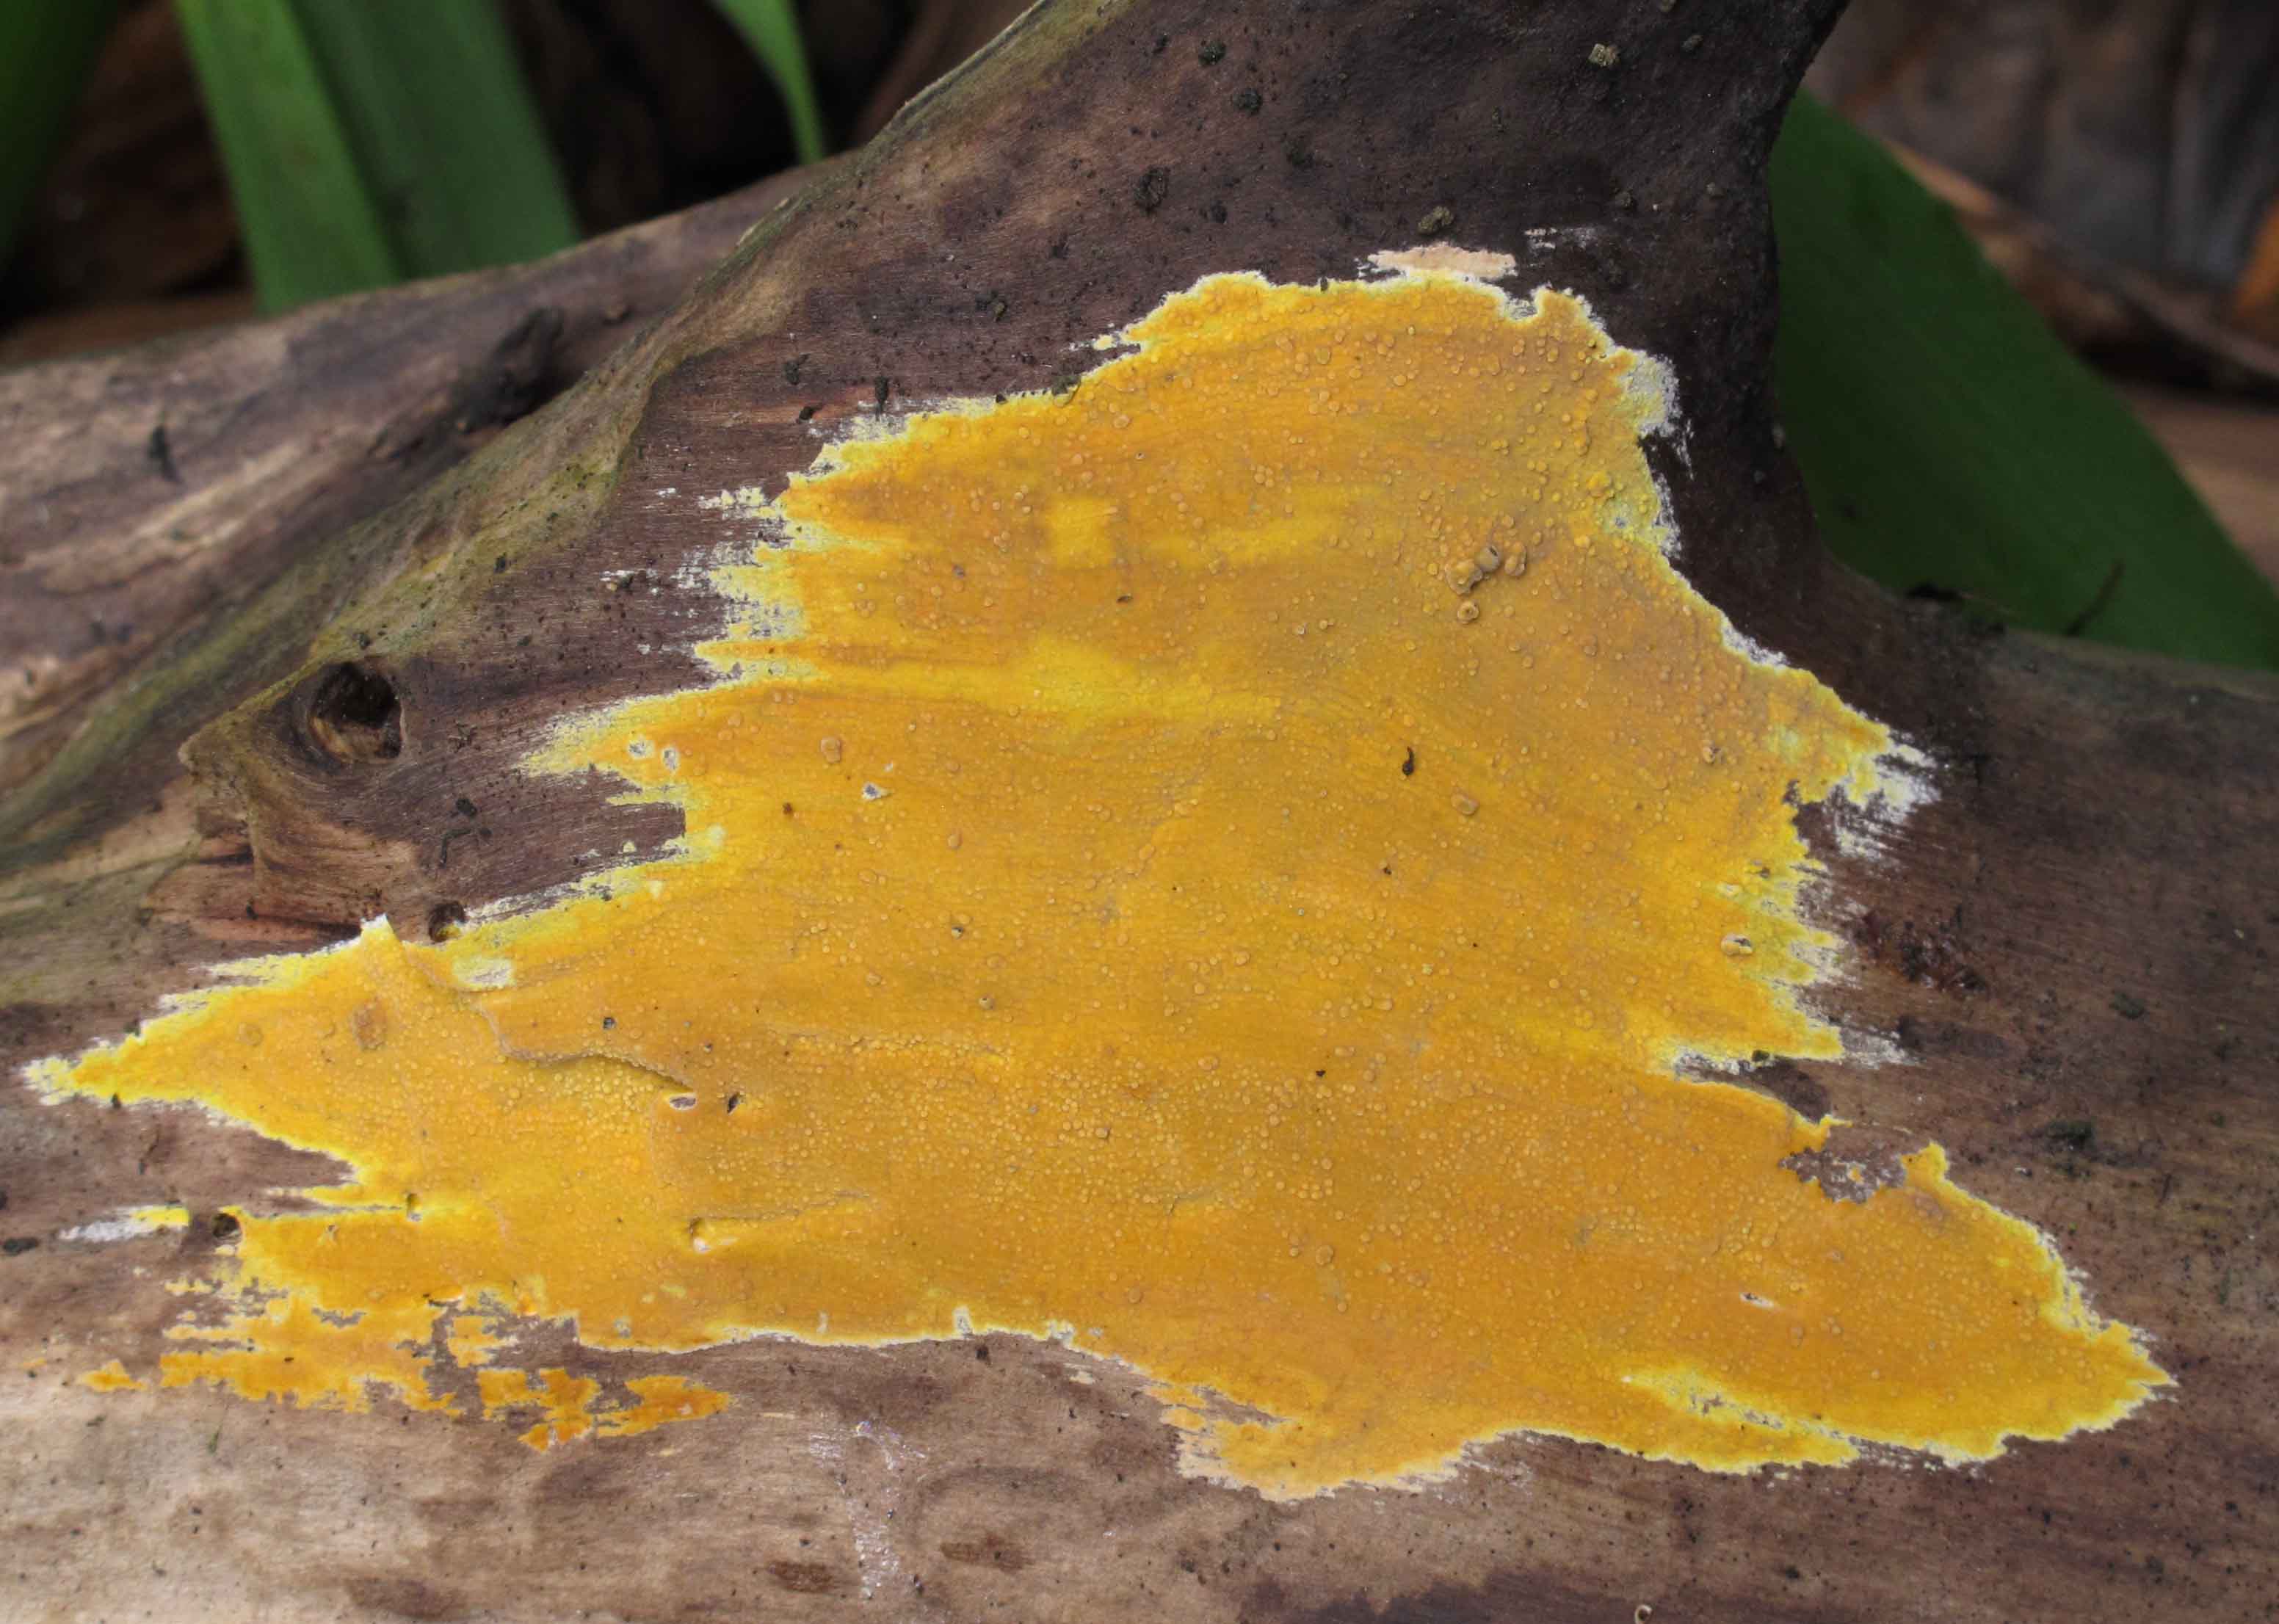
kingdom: Fungi
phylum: Basidiomycota
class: Agaricomycetes
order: Polyporales
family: Meruliaceae
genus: Phlebiodontia
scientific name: Phlebiodontia subochracea
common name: svovl-åresvamp
